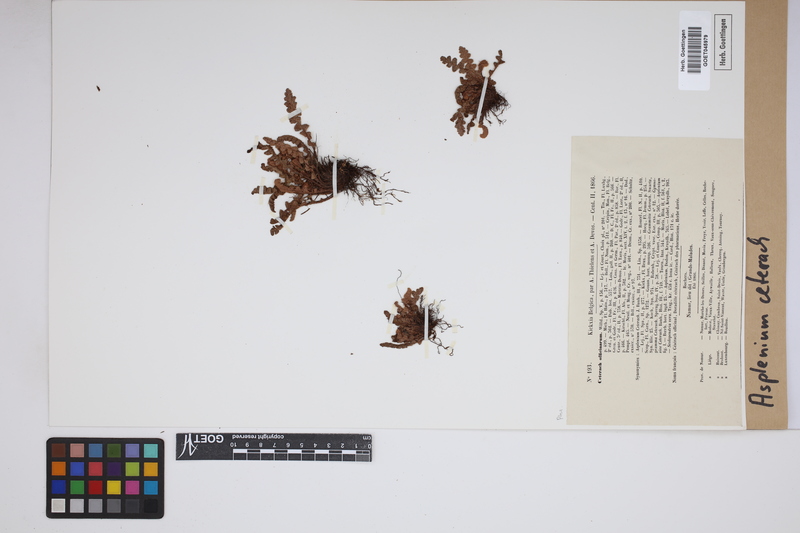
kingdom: Plantae
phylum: Tracheophyta
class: Polypodiopsida
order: Polypodiales
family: Aspleniaceae
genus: Asplenium
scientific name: Asplenium ceterach
